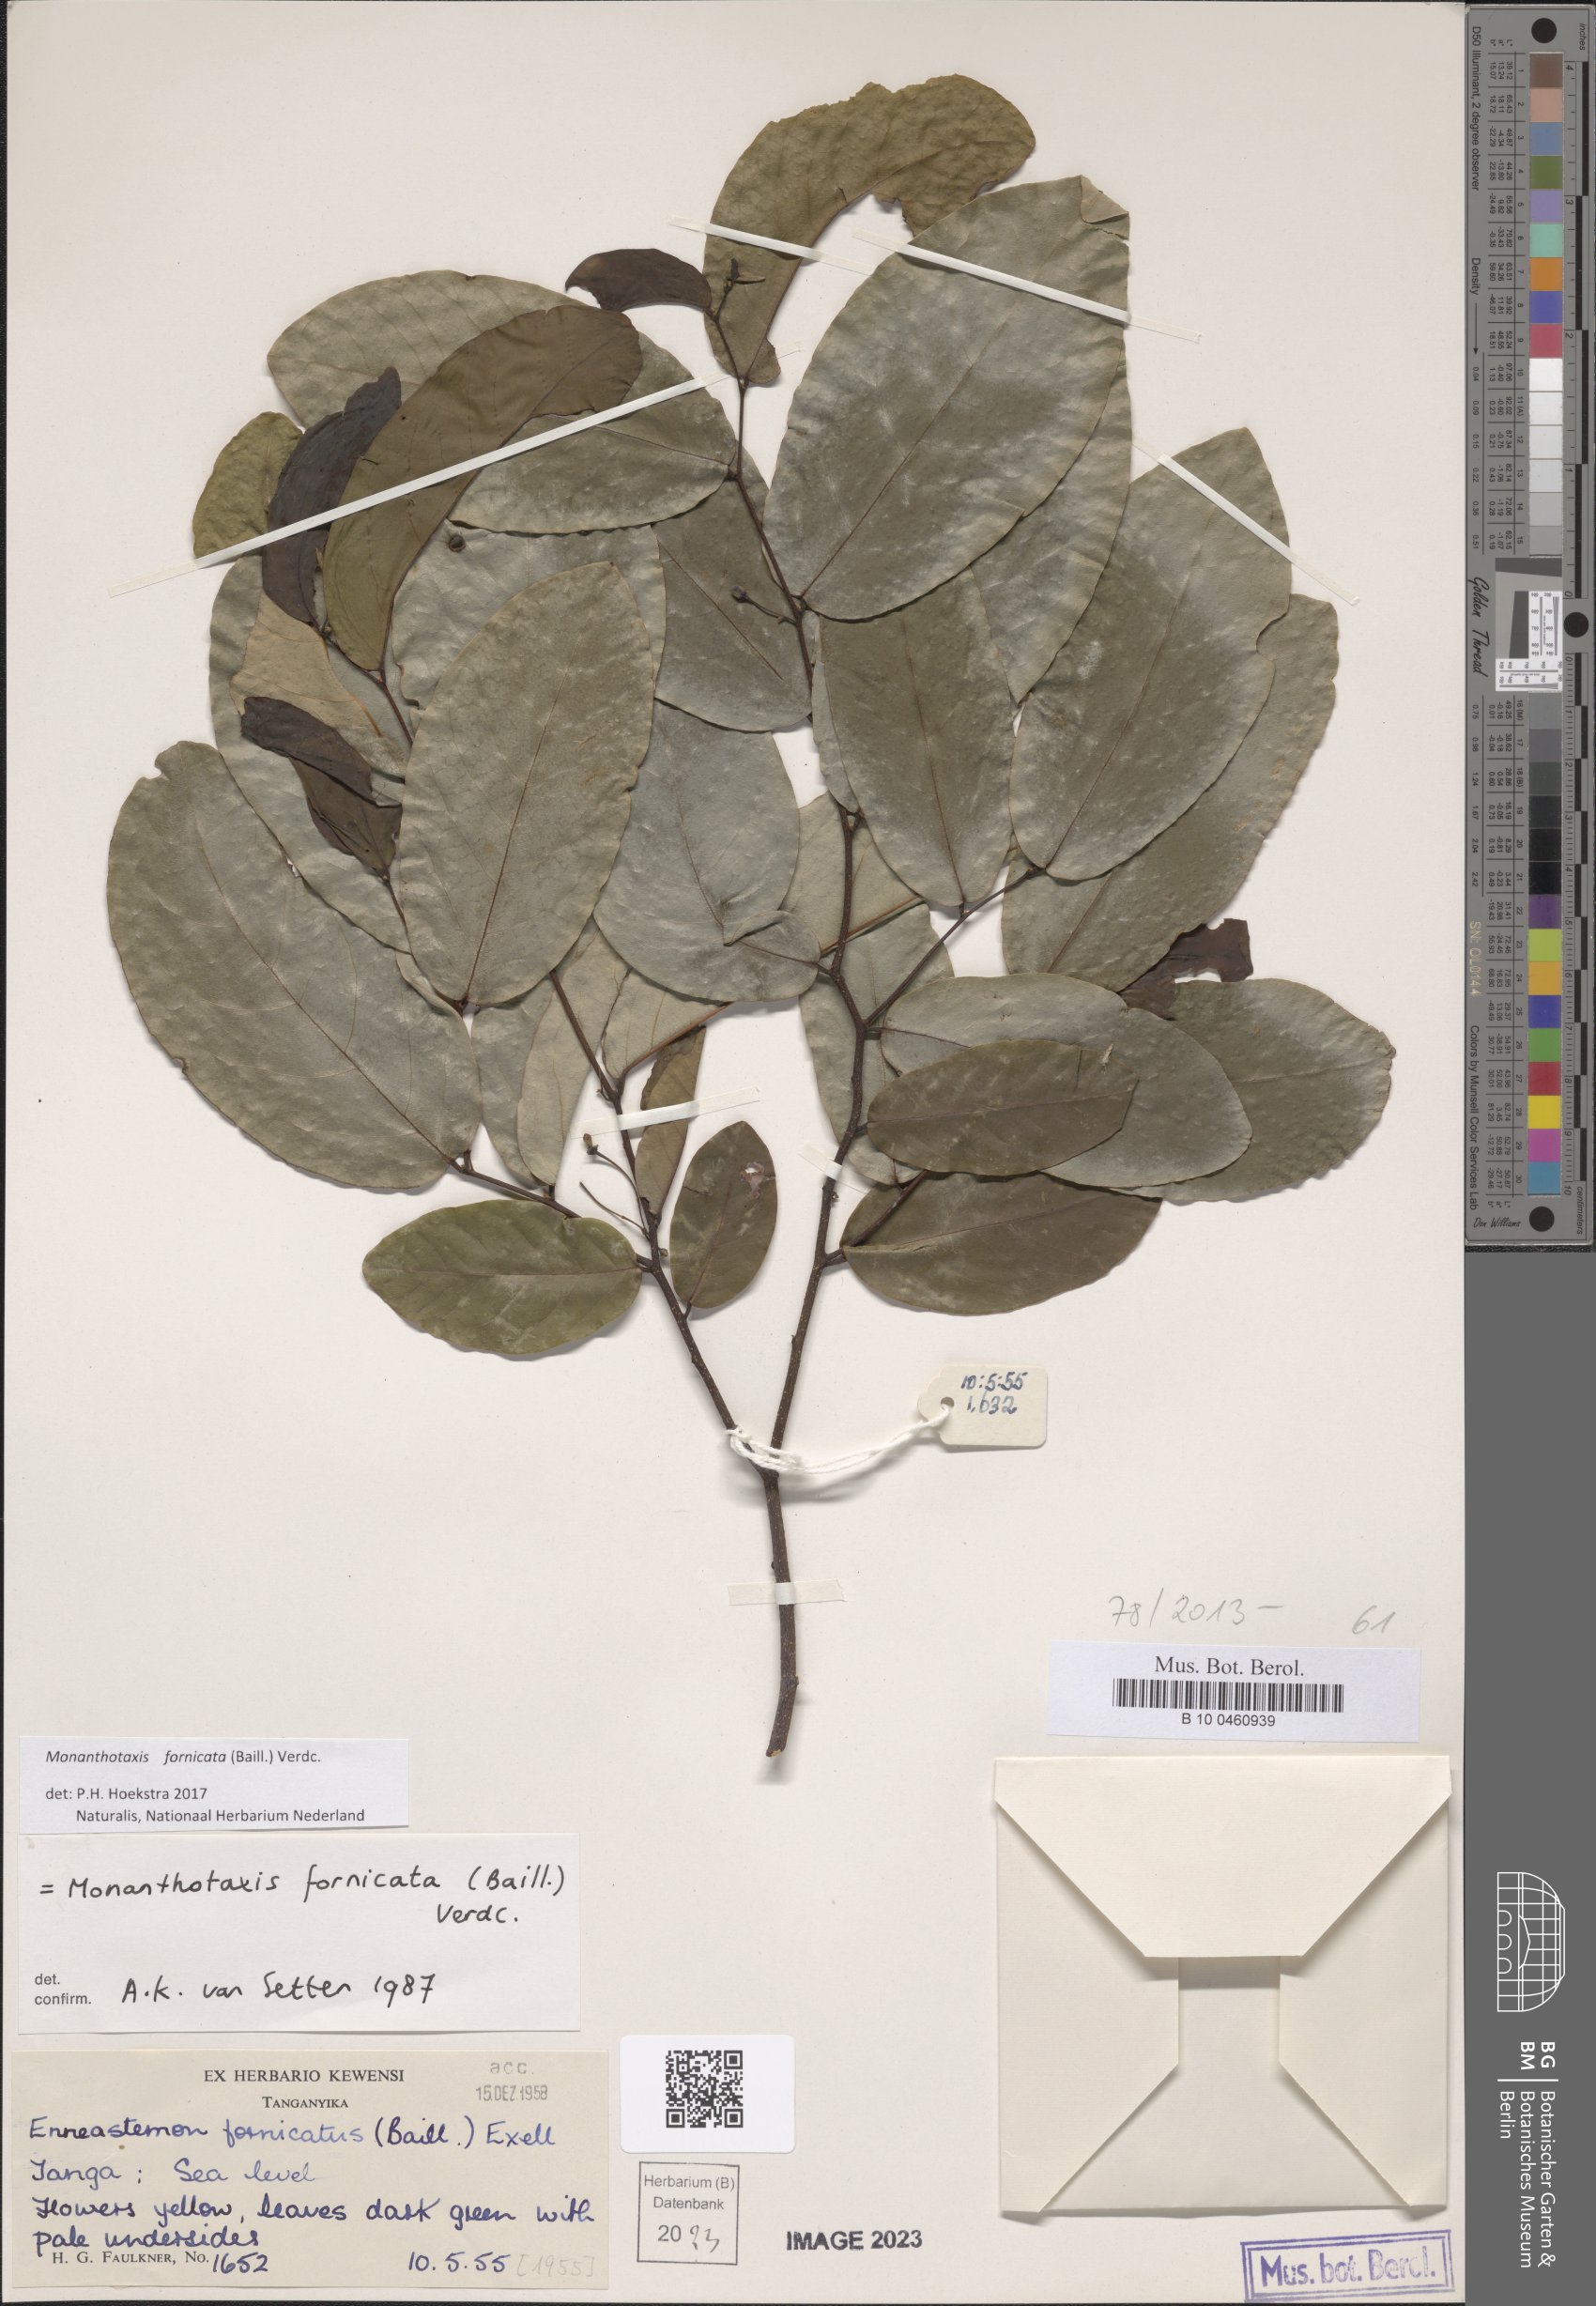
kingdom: Plantae
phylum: Tracheophyta
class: Magnoliopsida
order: Magnoliales
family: Annonaceae
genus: Monanthotaxis
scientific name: Monanthotaxis fornicata
